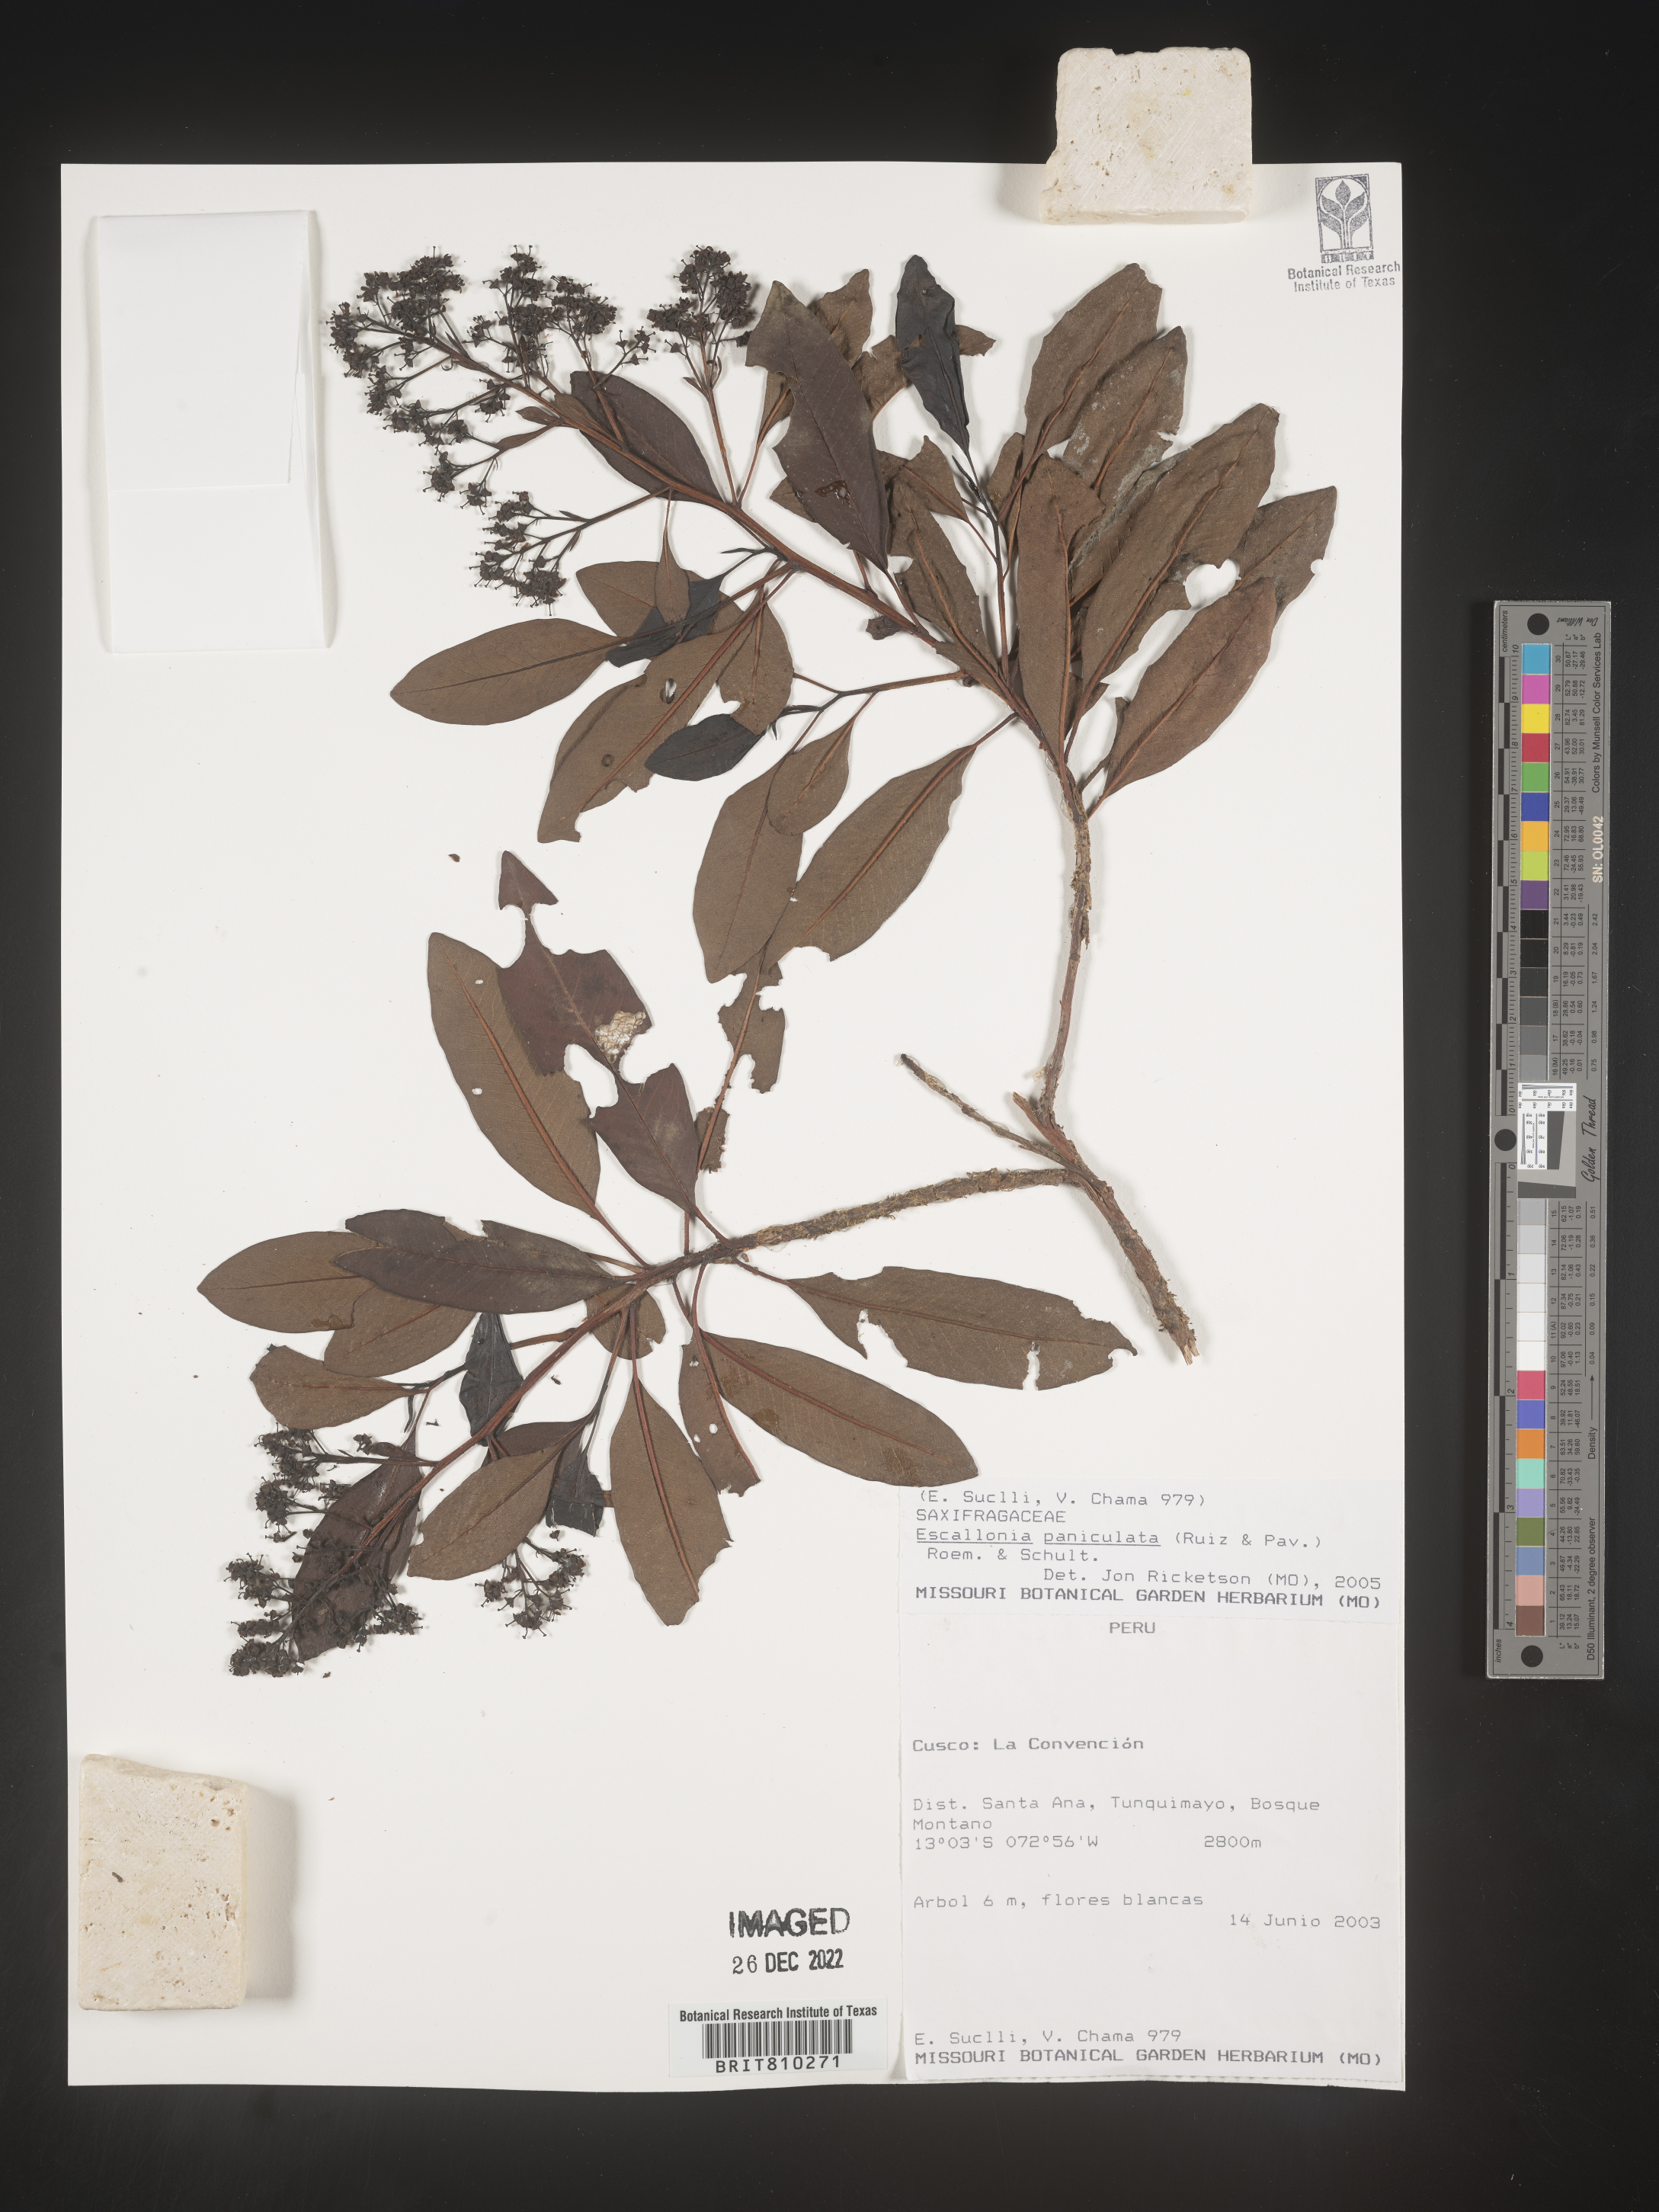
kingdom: Plantae
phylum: Tracheophyta
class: Magnoliopsida
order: Escalloniales
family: Escalloniaceae
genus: Escallonia
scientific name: Escallonia paniculata
